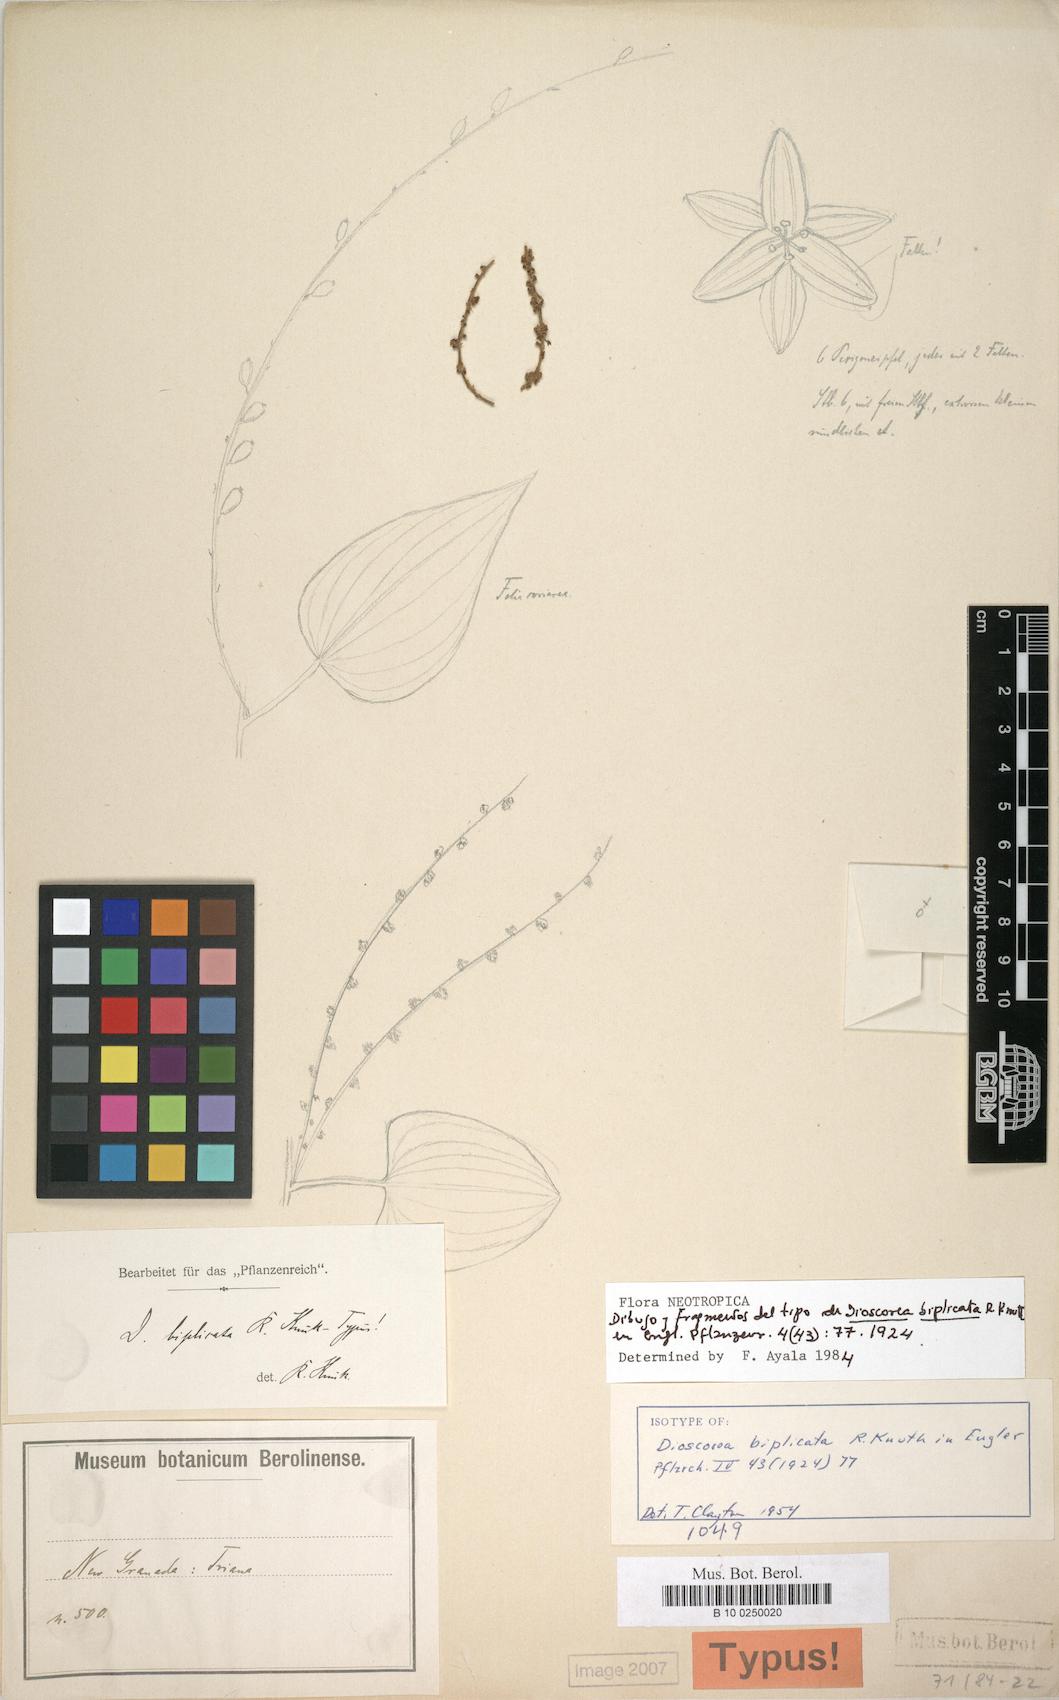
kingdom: Plantae
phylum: Tracheophyta
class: Liliopsida
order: Dioscoreales
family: Dioscoreaceae
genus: Dioscorea
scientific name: Dioscorea biplicata
